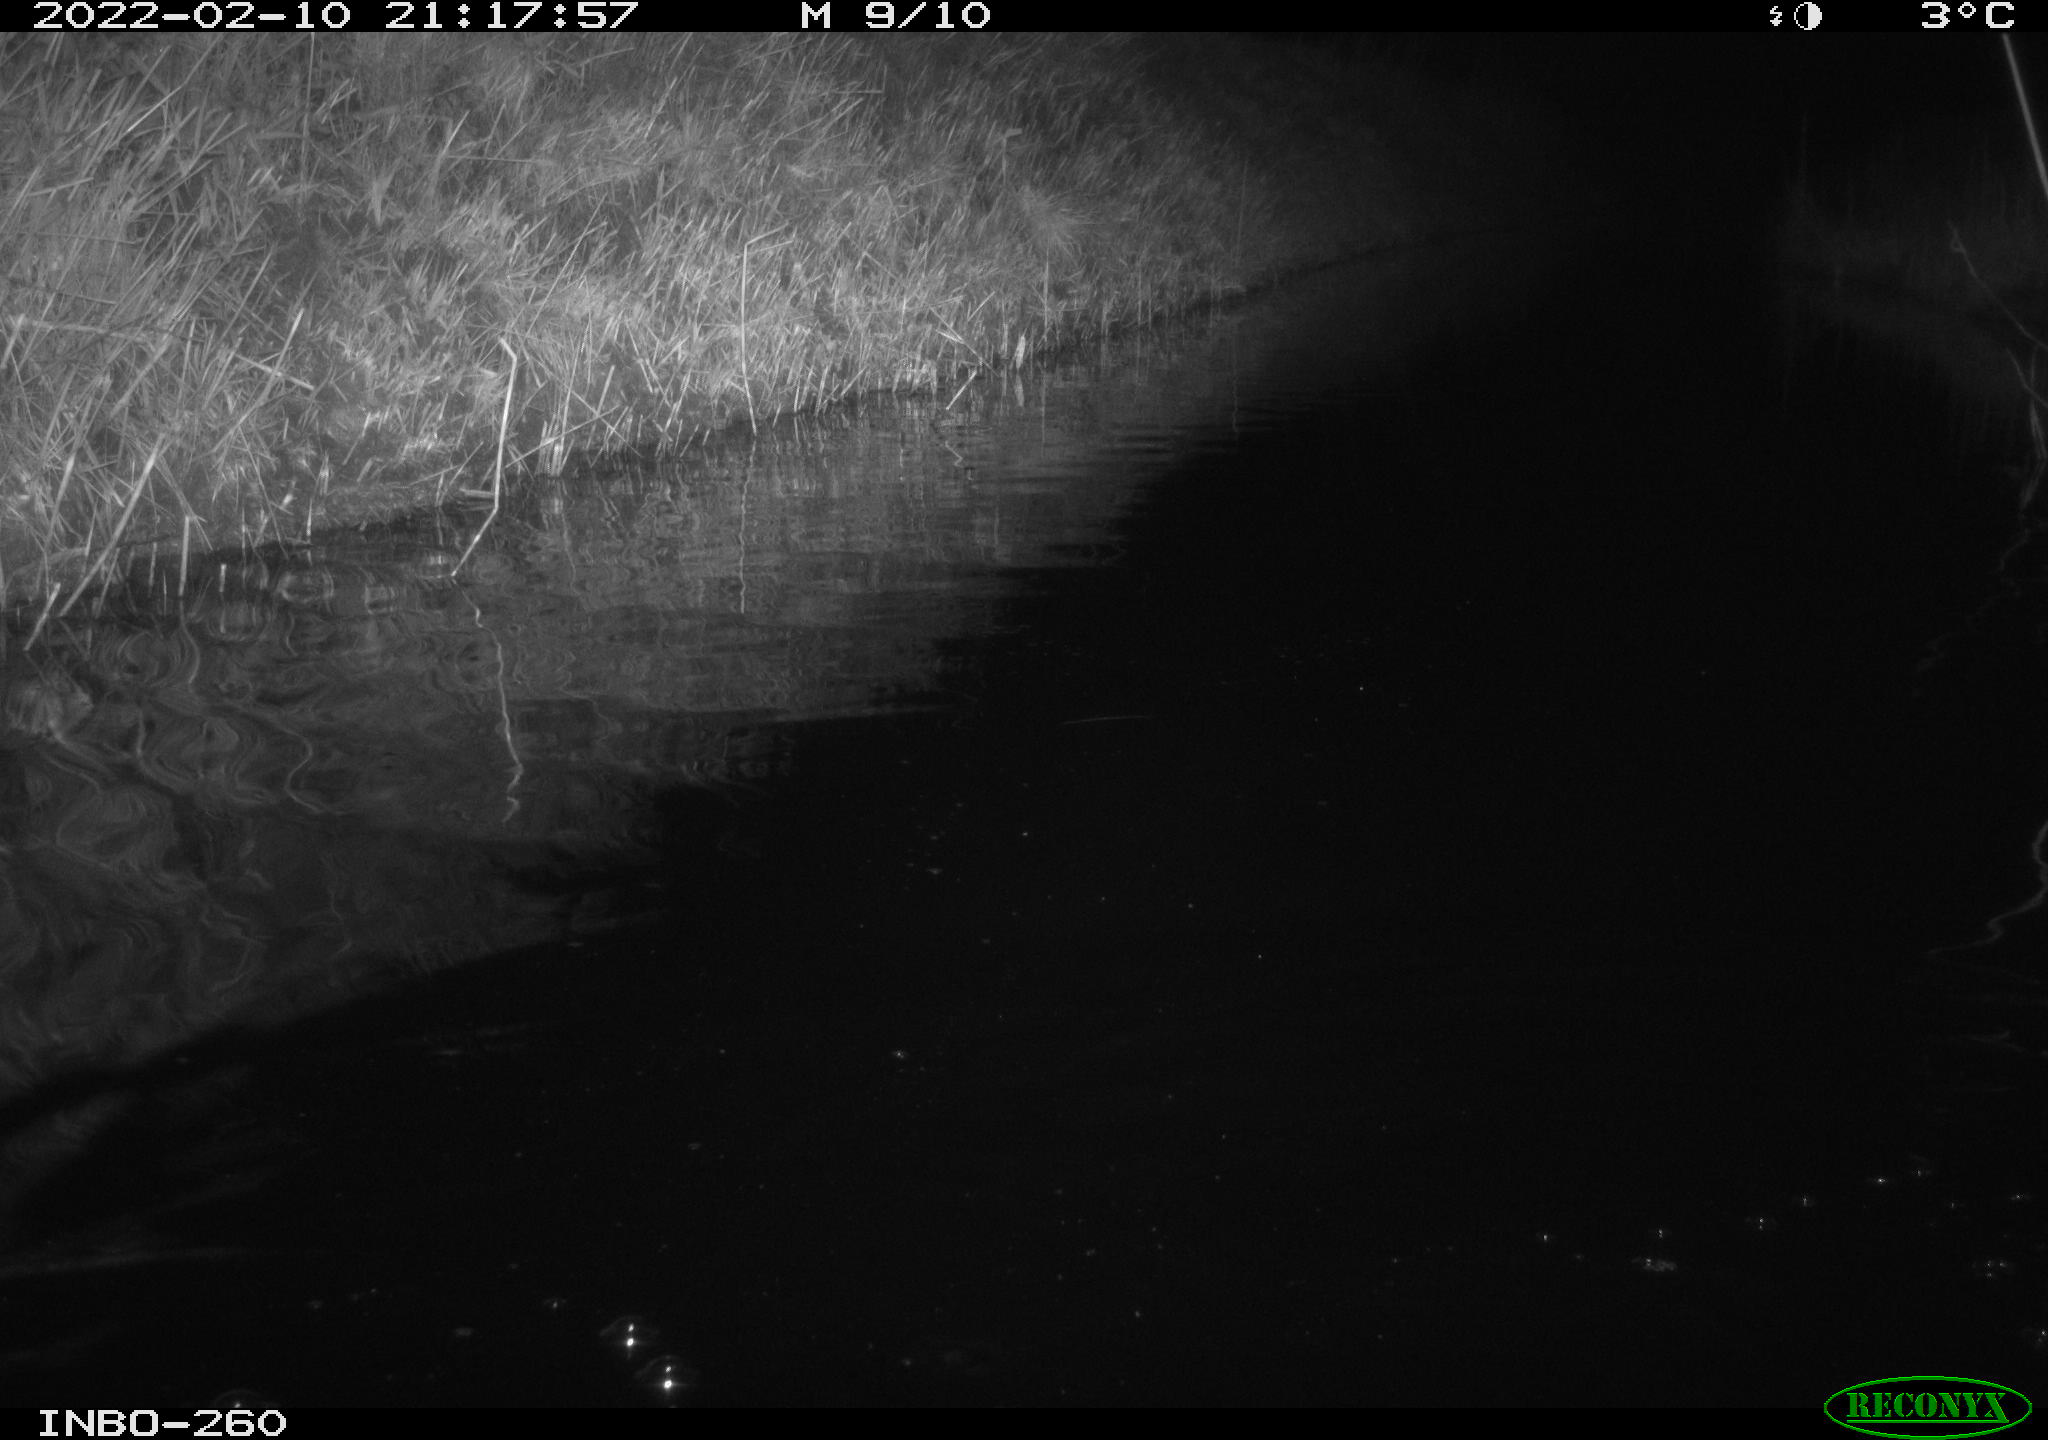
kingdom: Animalia
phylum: Chordata
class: Mammalia
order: Rodentia
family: Cricetidae
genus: Ondatra
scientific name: Ondatra zibethicus
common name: Muskrat
